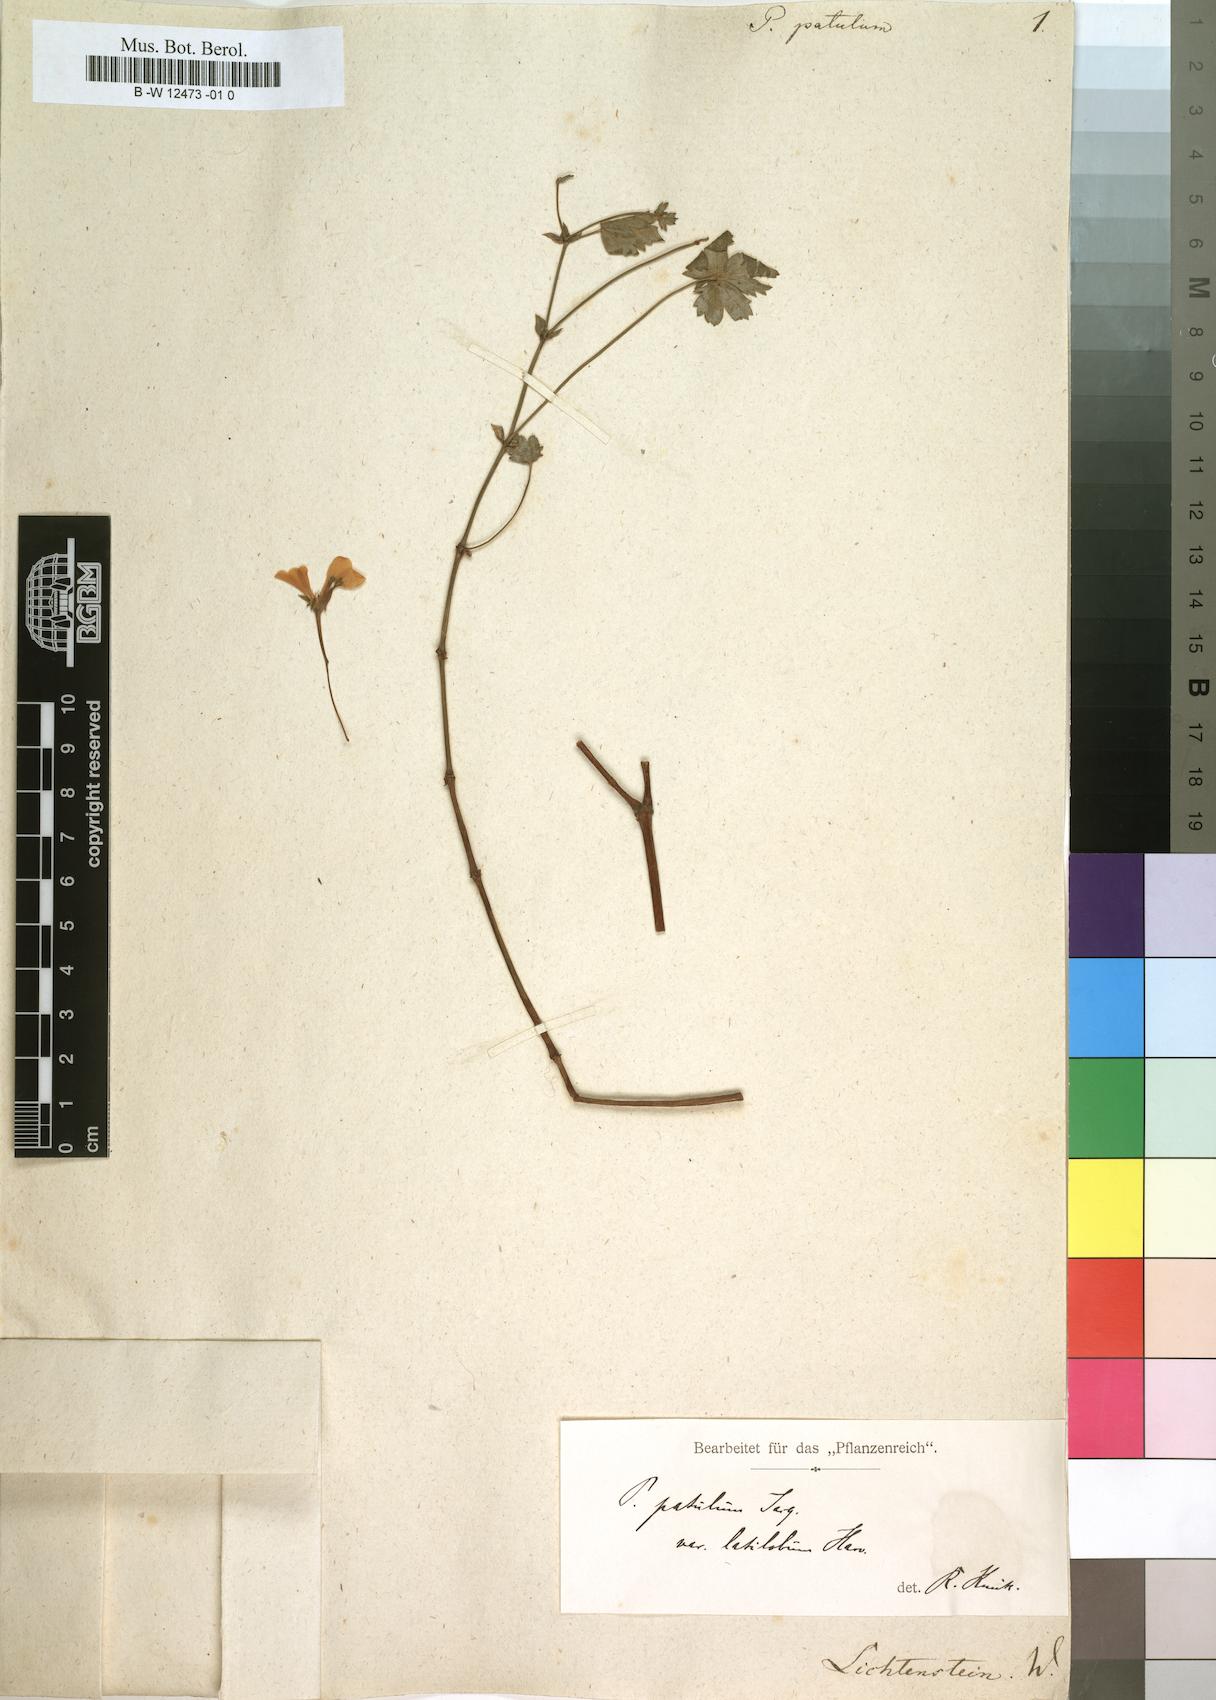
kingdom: Plantae
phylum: Tracheophyta
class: Magnoliopsida
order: Geraniales
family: Geraniaceae
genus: Pelargonium
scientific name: Pelargonium patulum
